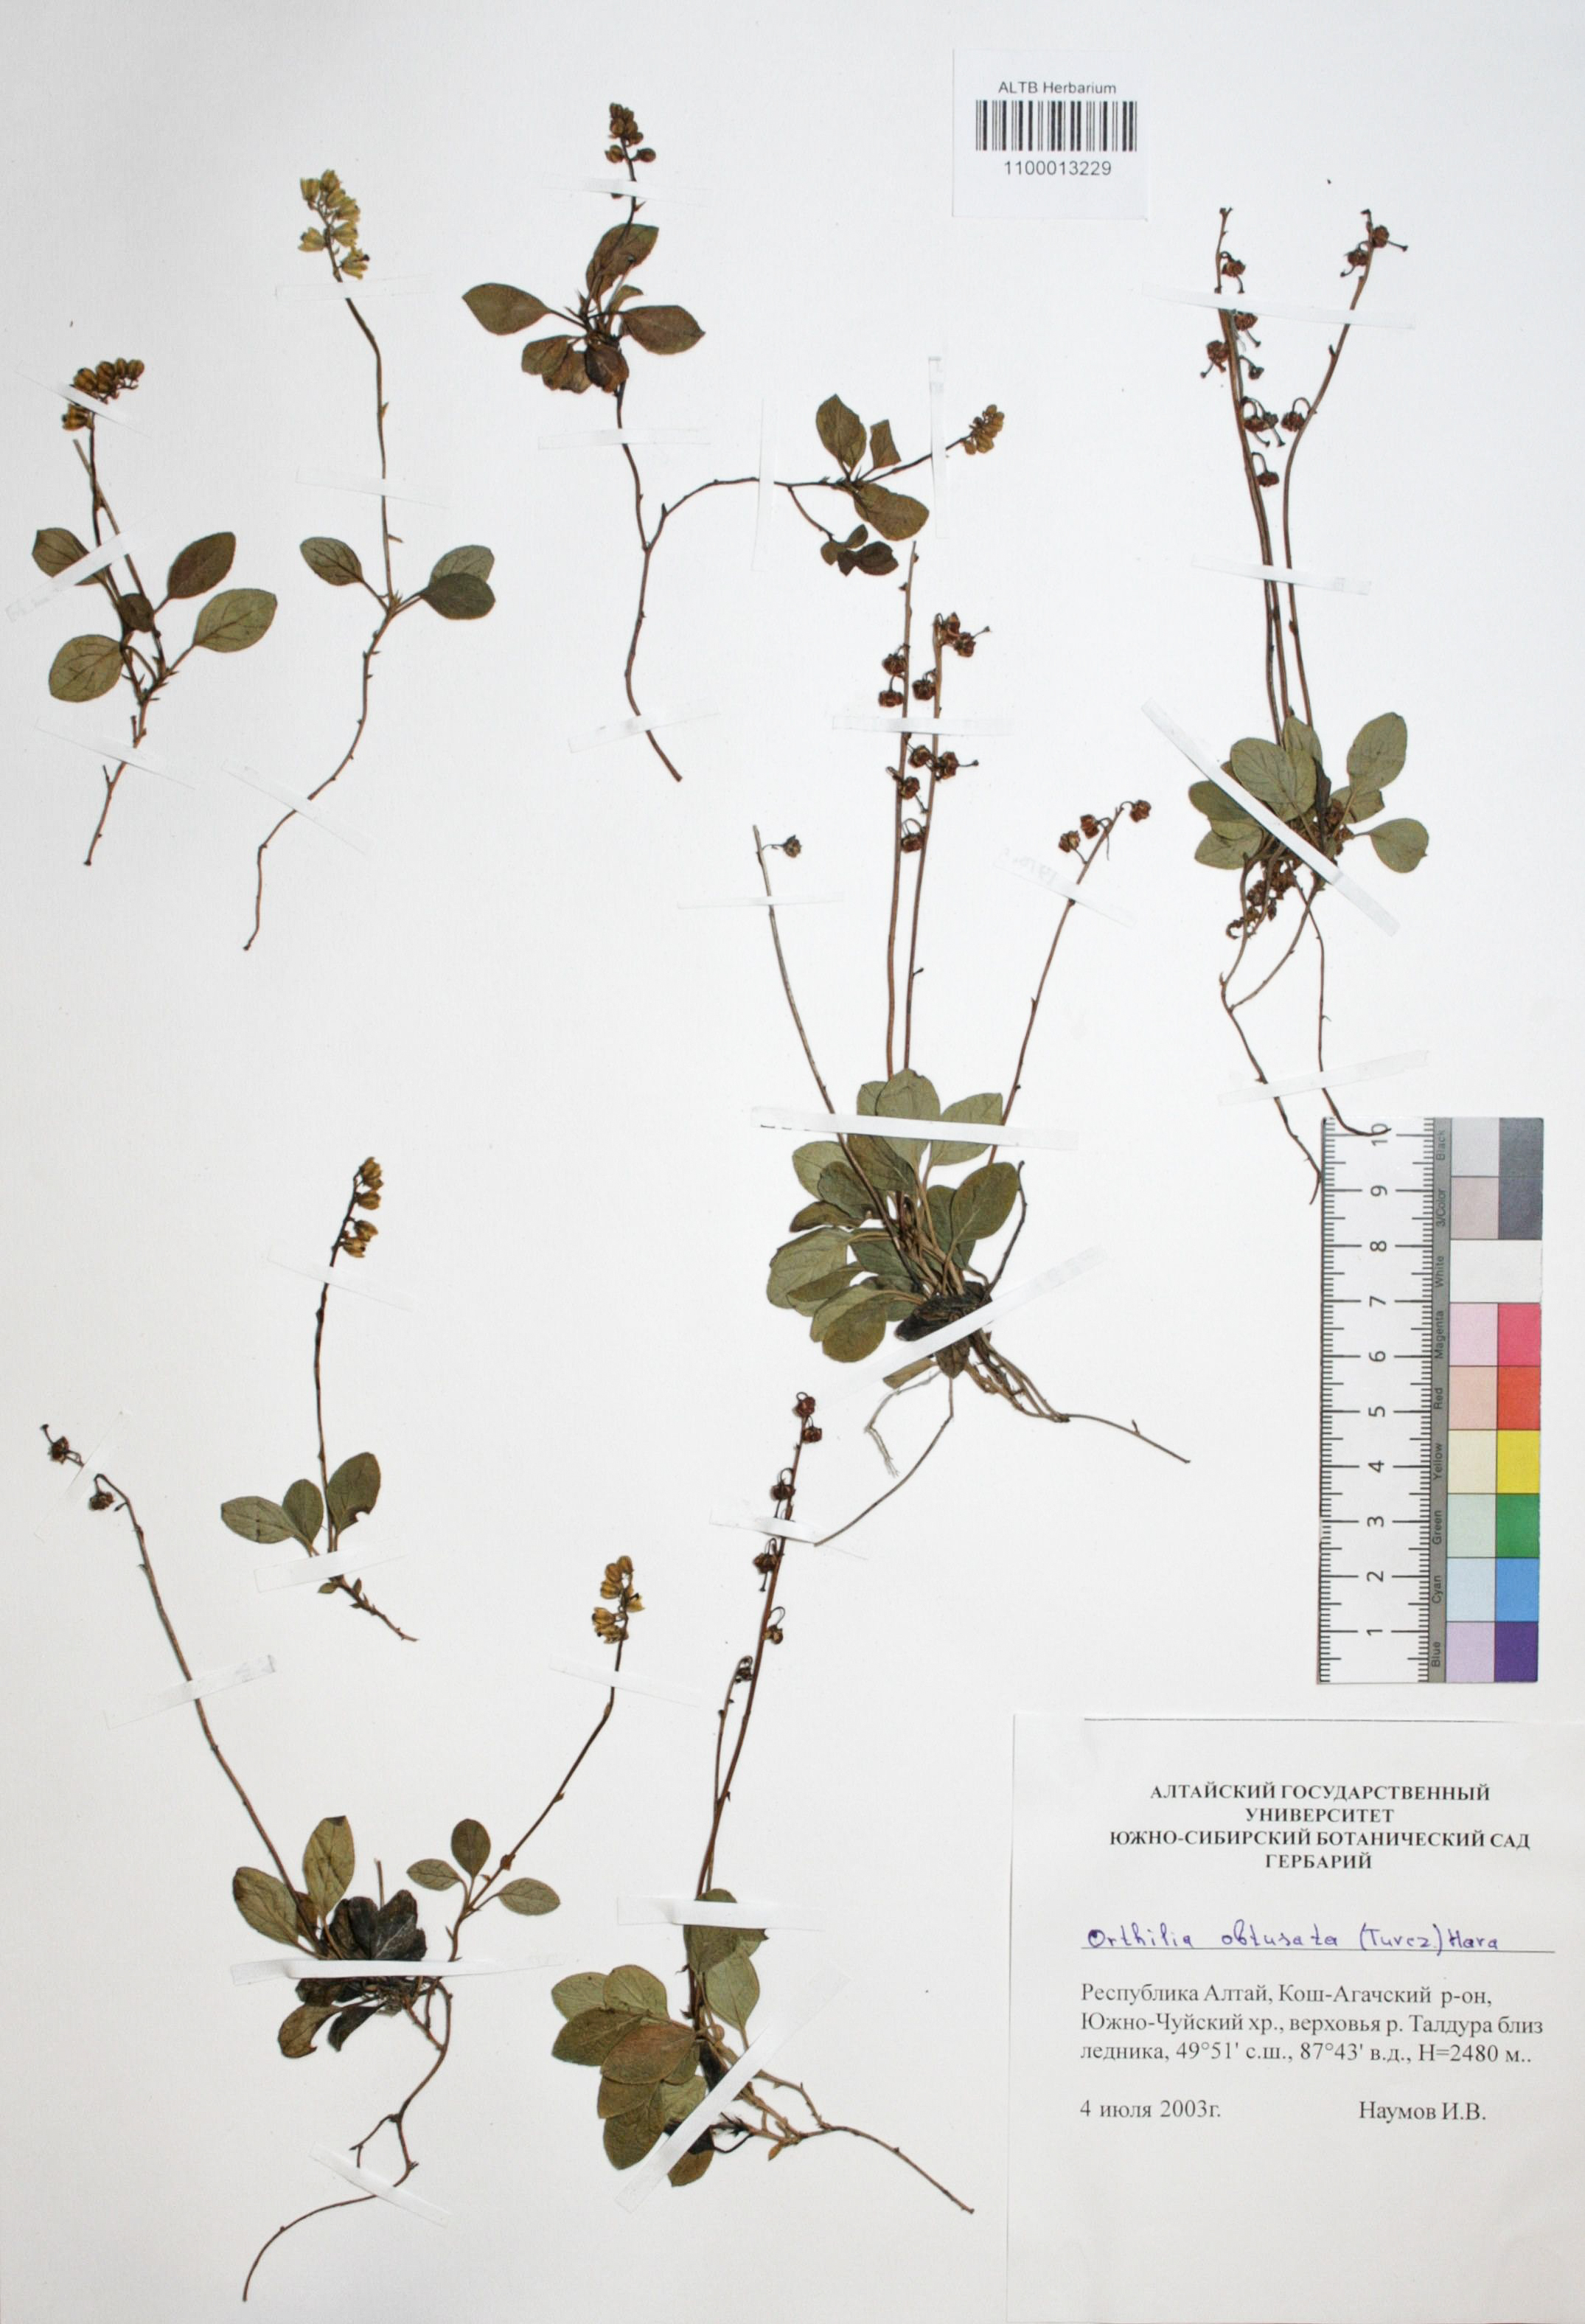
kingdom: Plantae
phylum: Tracheophyta
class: Magnoliopsida
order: Ericales
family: Ericaceae
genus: Orthilia
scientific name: Orthilia secunda
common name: One-sided orthilia
